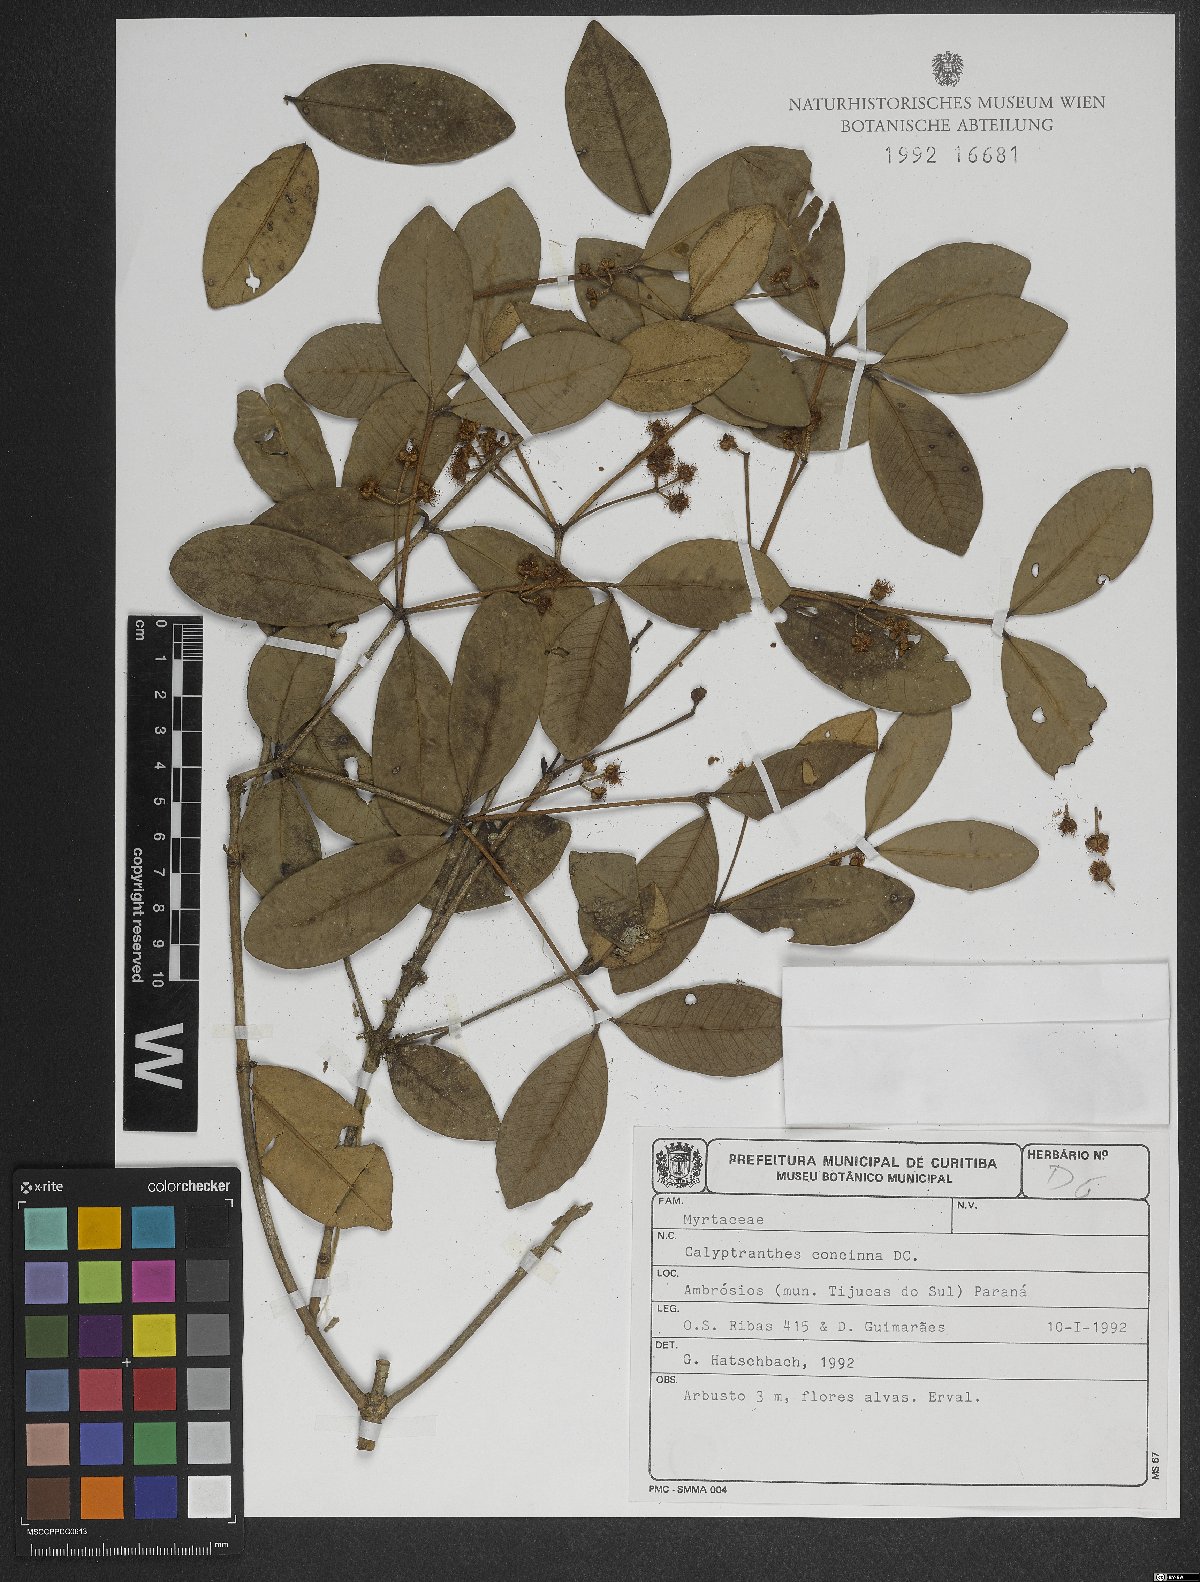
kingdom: Plantae
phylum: Tracheophyta
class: Magnoliopsida
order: Myrtales
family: Myrtaceae
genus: Myrcia
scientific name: Myrcia cruciflora
